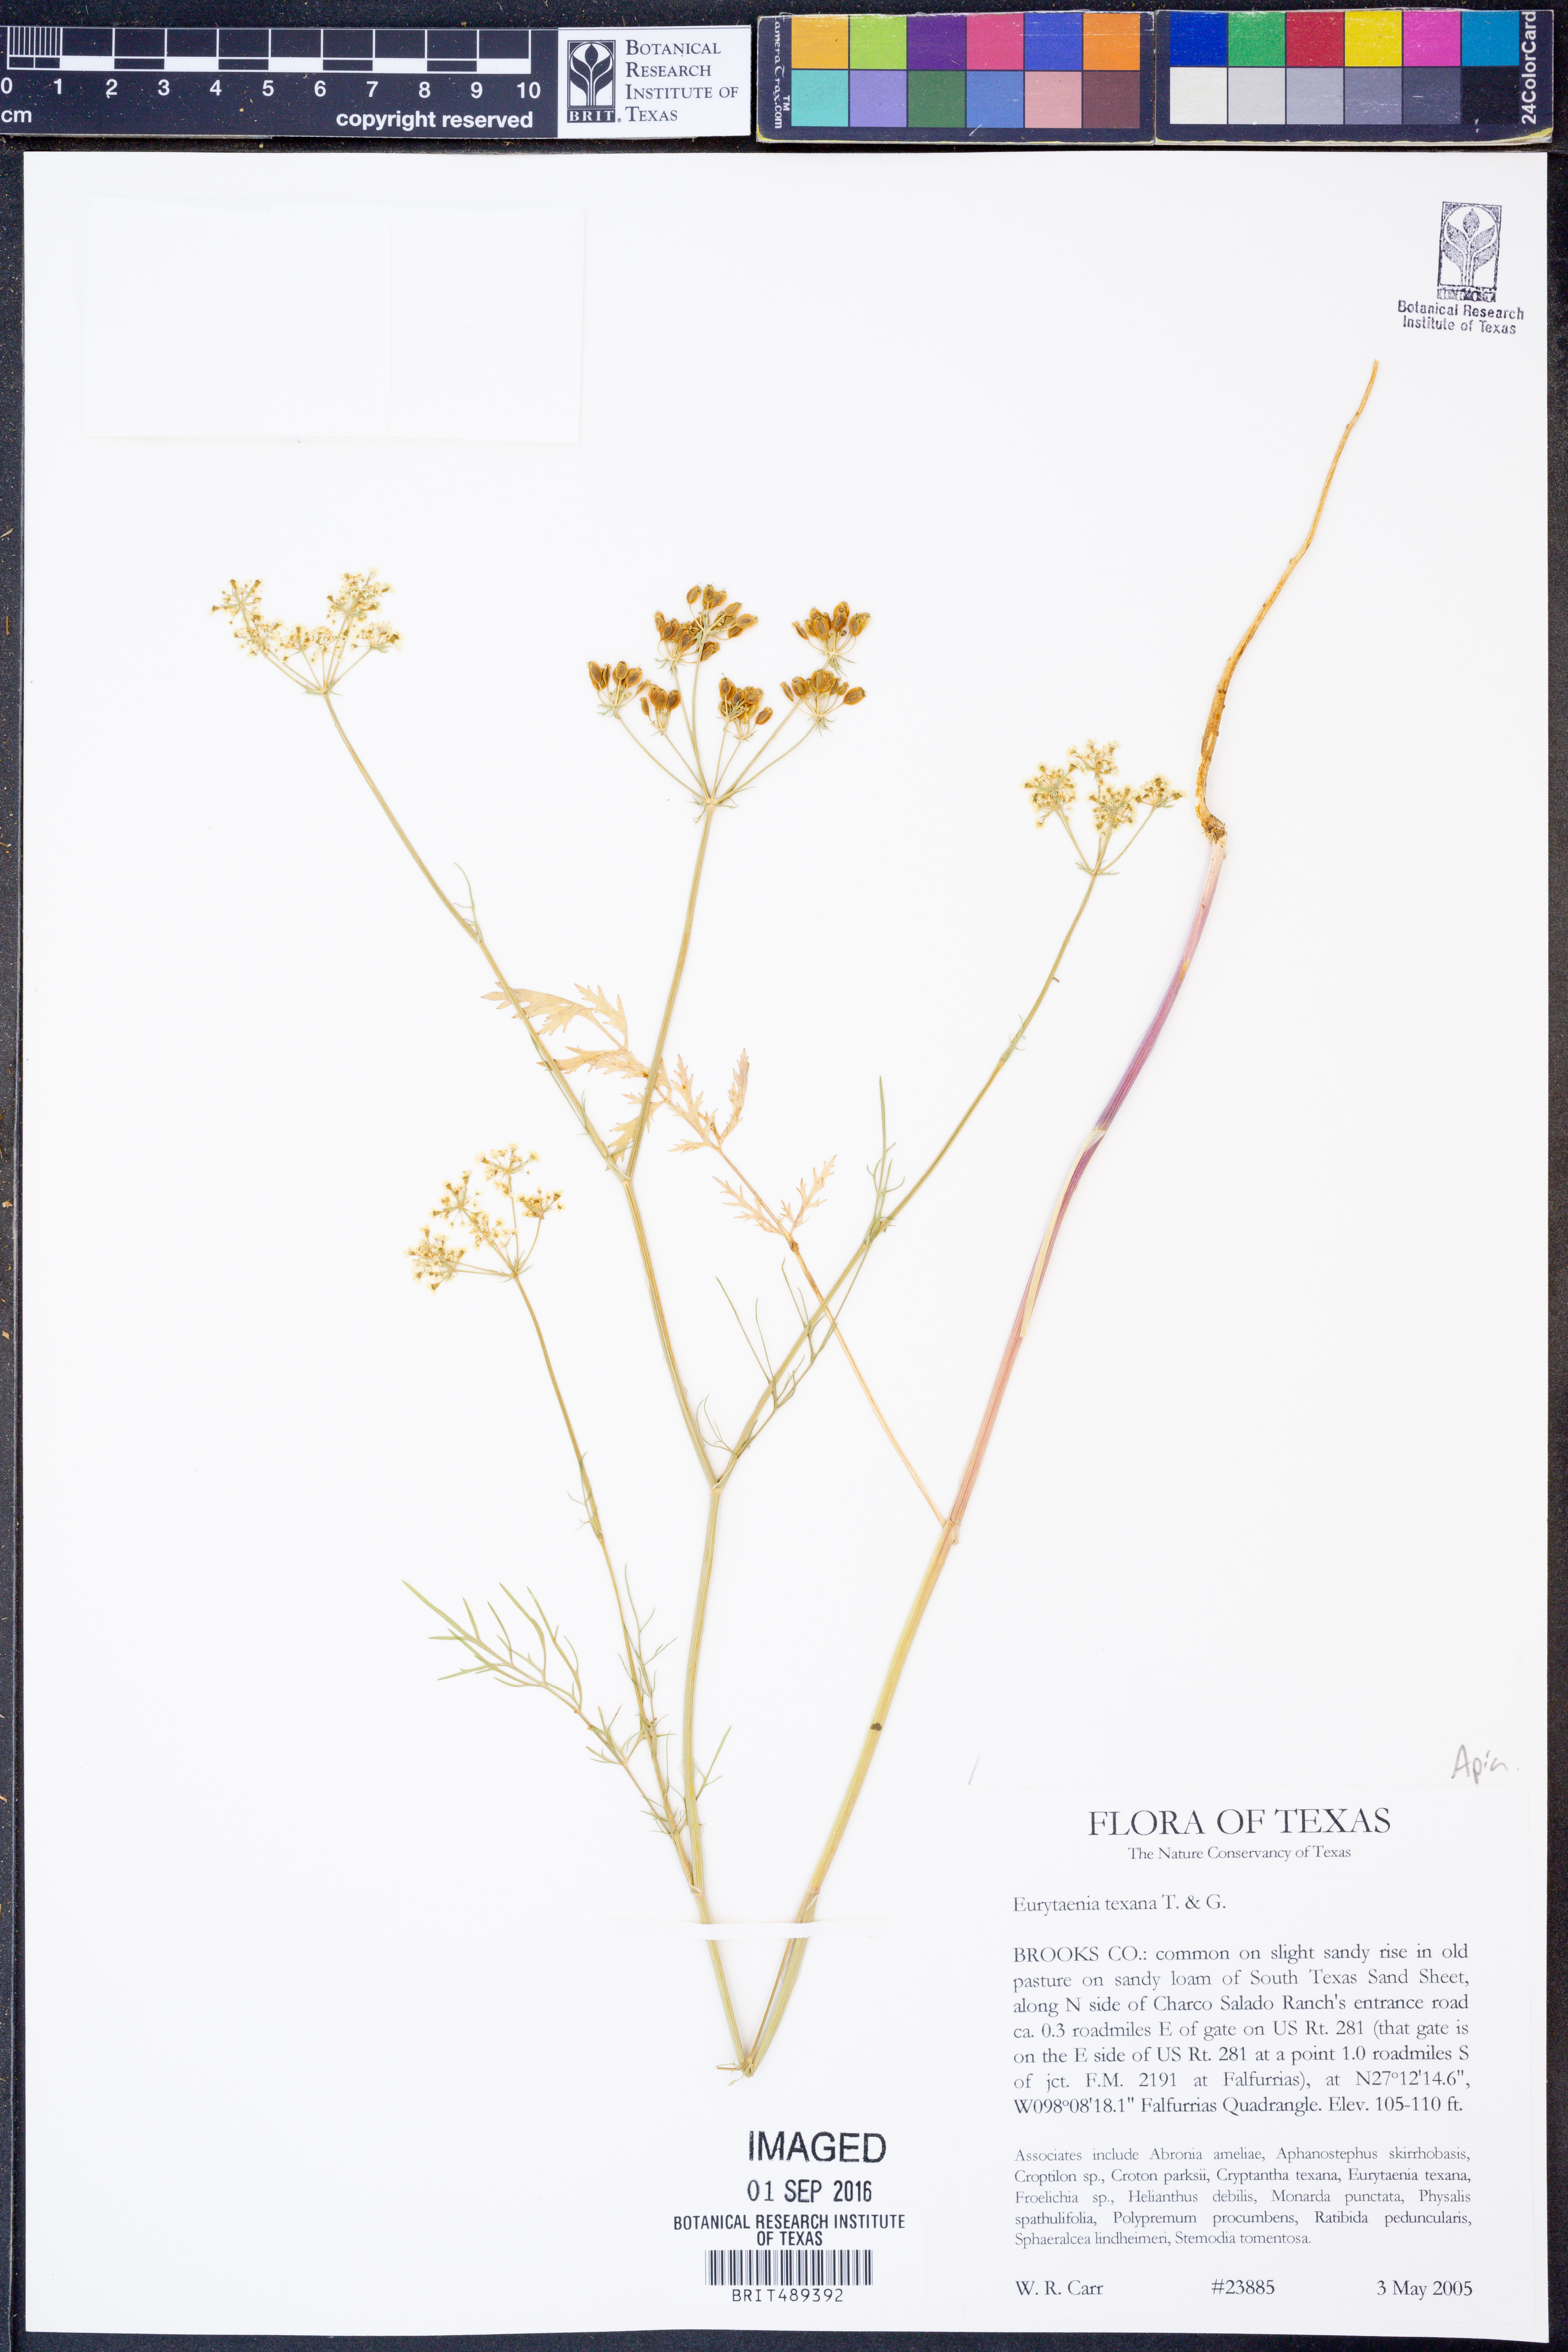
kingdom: Plantae
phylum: Tracheophyta
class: Magnoliopsida
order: Apiales
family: Apiaceae
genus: Eurytaenia
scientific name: Eurytaenia texana
